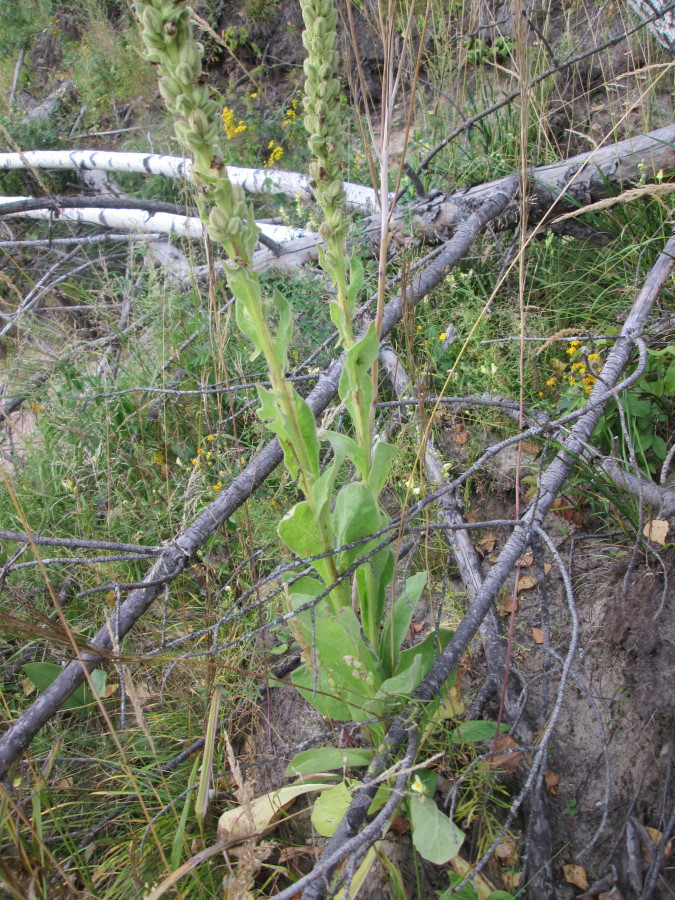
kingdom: Plantae
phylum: Tracheophyta
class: Magnoliopsida
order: Lamiales
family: Scrophulariaceae
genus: Verbascum
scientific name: Verbascum thapsus
